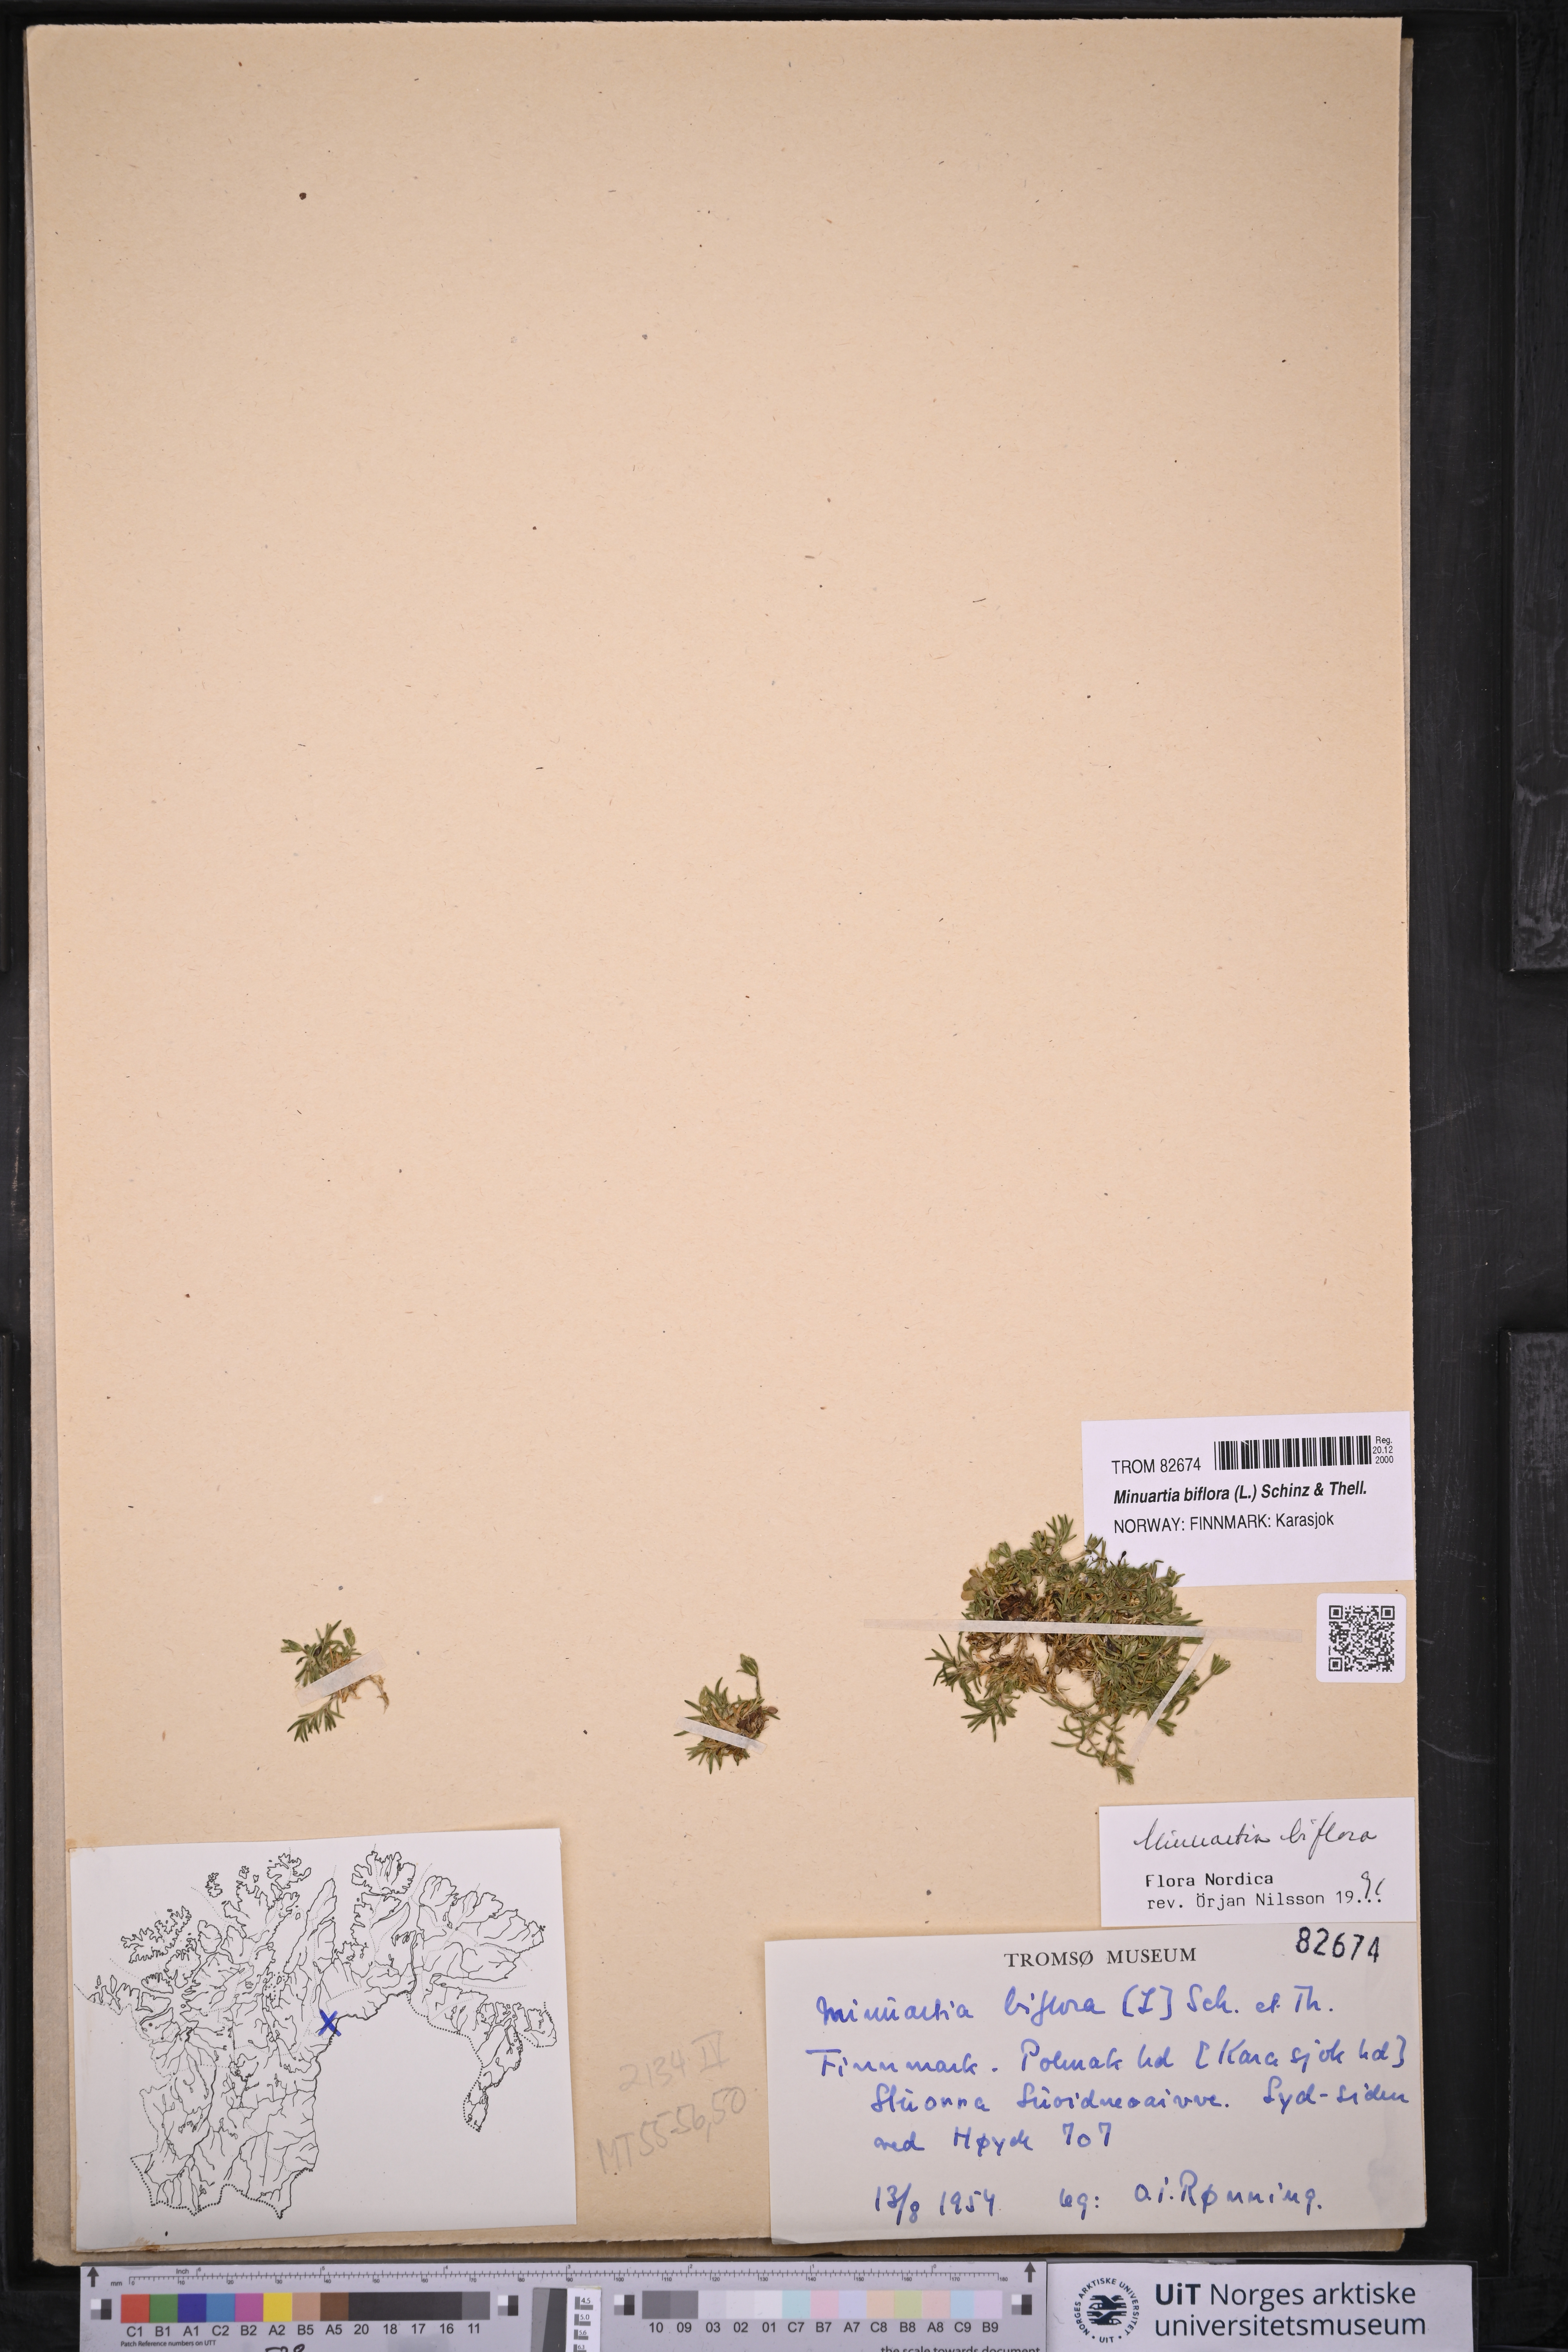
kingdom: Plantae
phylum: Tracheophyta
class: Magnoliopsida
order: Caryophyllales
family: Caryophyllaceae
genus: Cherleria
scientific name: Cherleria biflora
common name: Mountain sandwort
